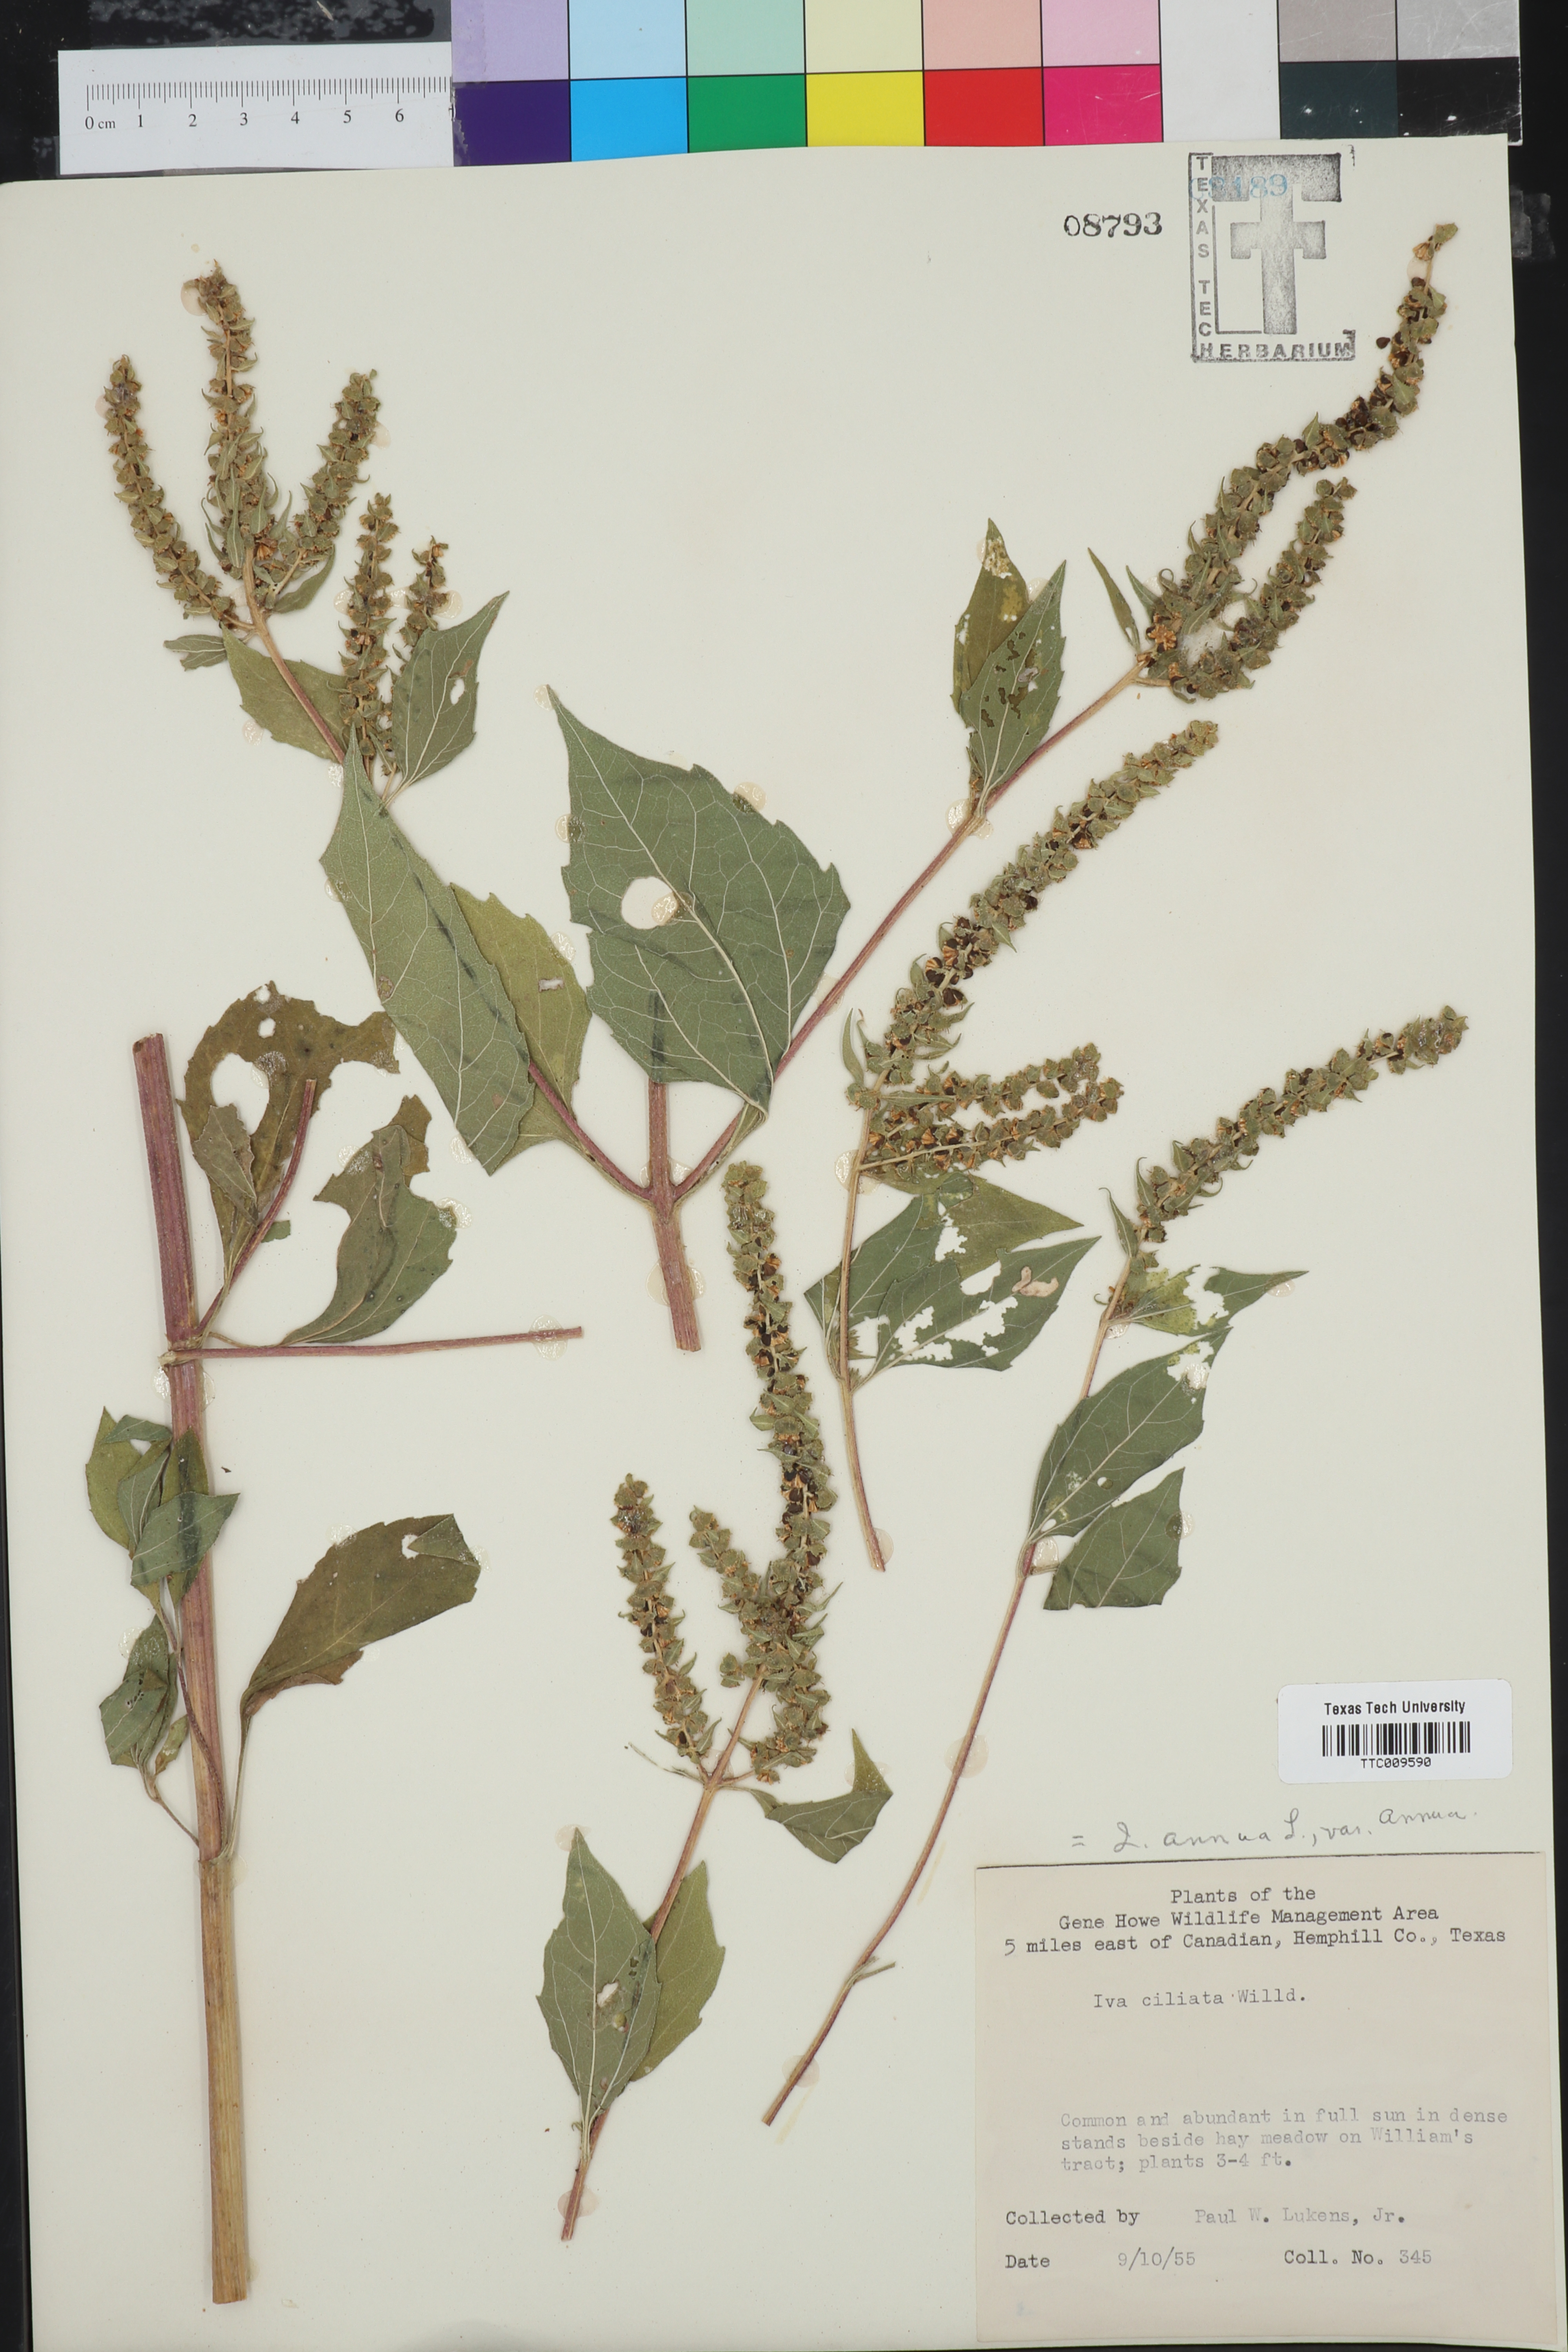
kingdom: Plantae
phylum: Tracheophyta
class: Magnoliopsida
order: Asterales
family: Asteraceae
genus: Iva
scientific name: Iva annua
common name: Marsh-elder
